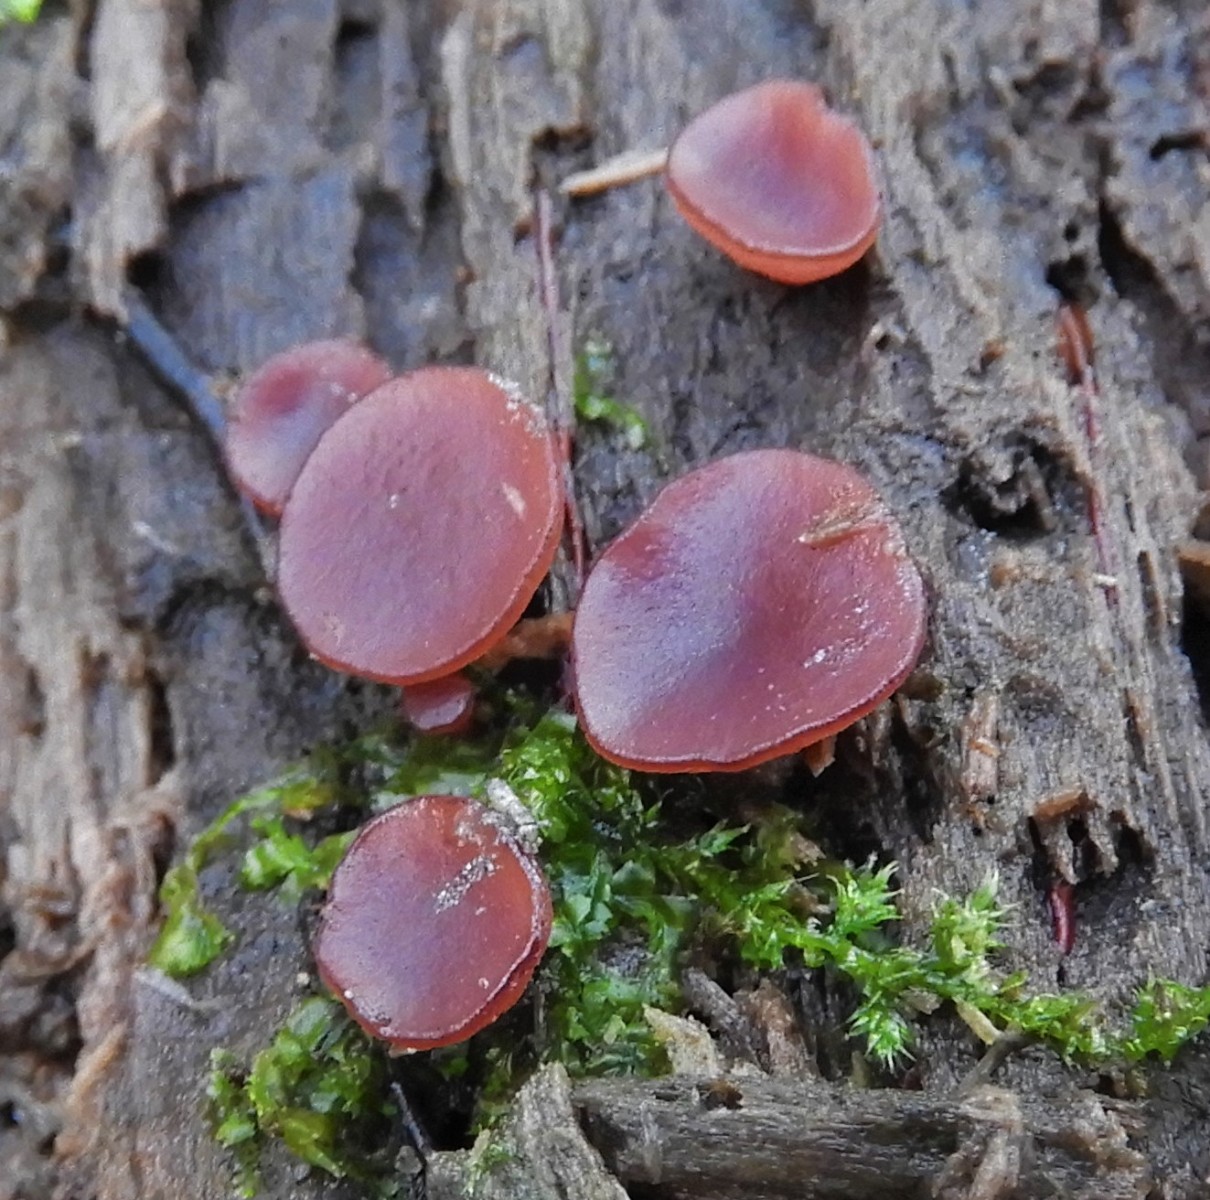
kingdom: Fungi
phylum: Ascomycota
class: Leotiomycetes
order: Helotiales
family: Gelatinodiscaceae
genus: Ascocoryne
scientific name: Ascocoryne cylichnium
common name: stor sejskive
